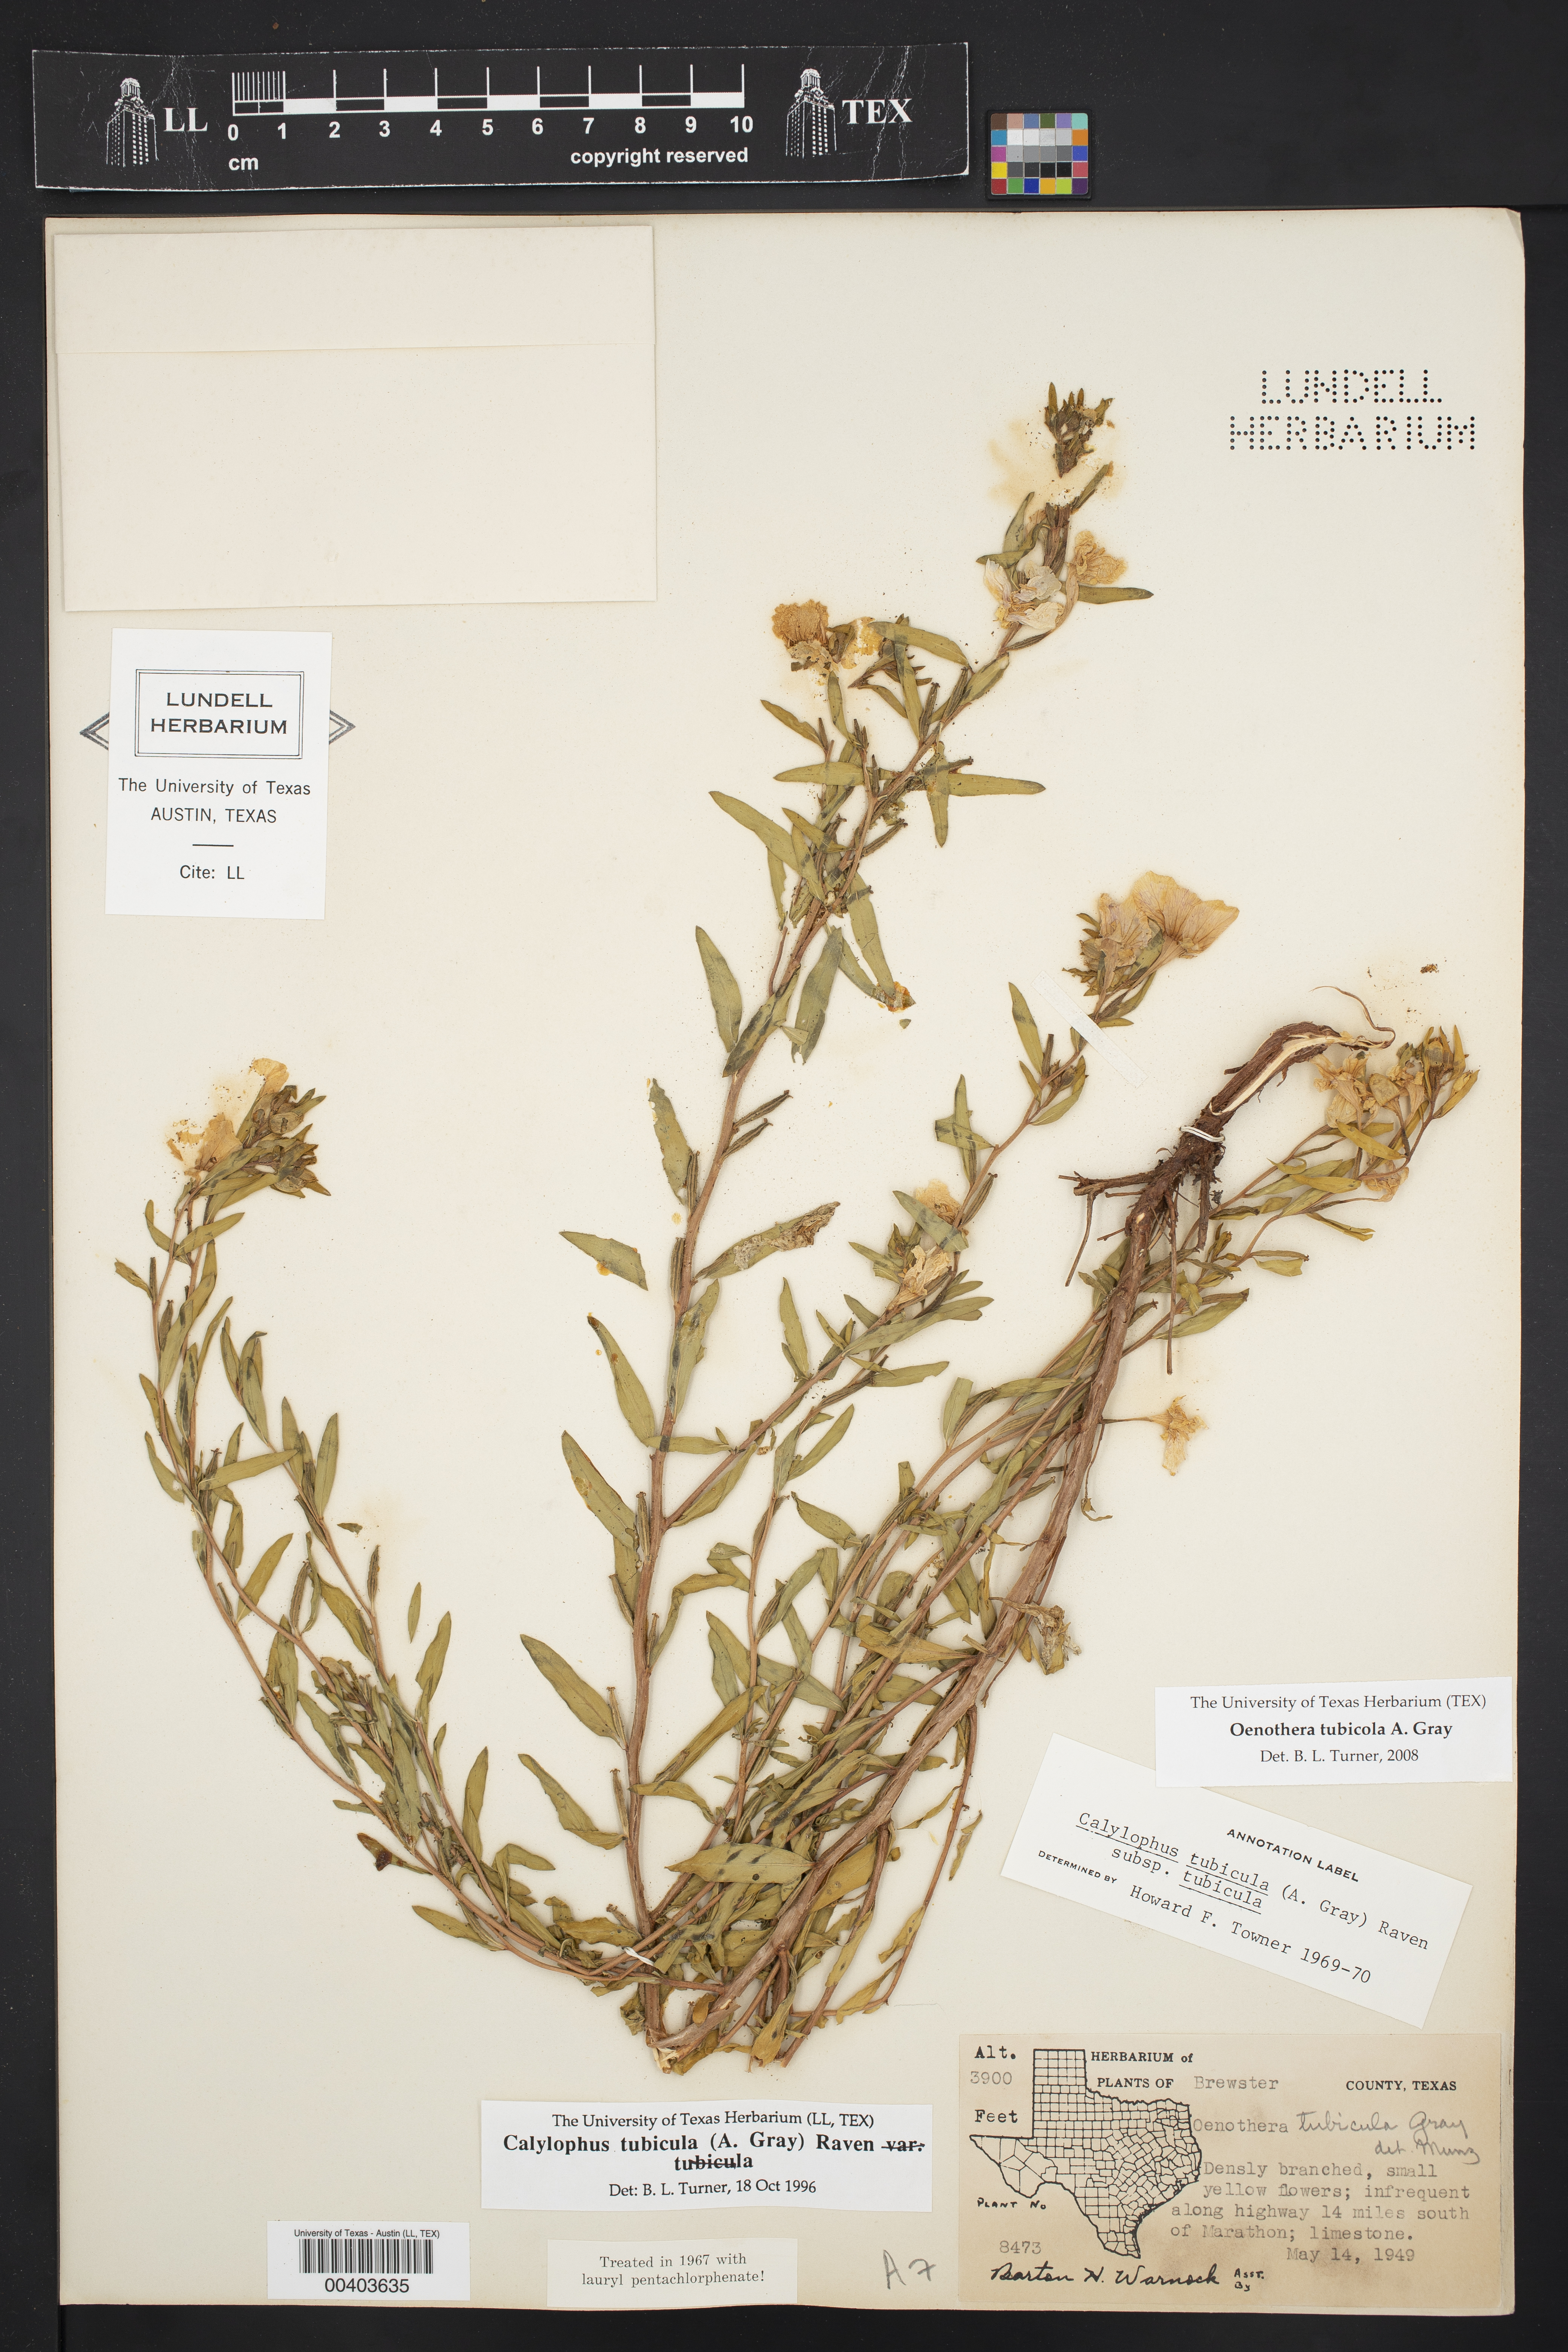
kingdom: Plantae
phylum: Tracheophyta
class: Magnoliopsida
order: Myrtales
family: Onagraceae
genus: Oenothera
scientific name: Oenothera tubicula
